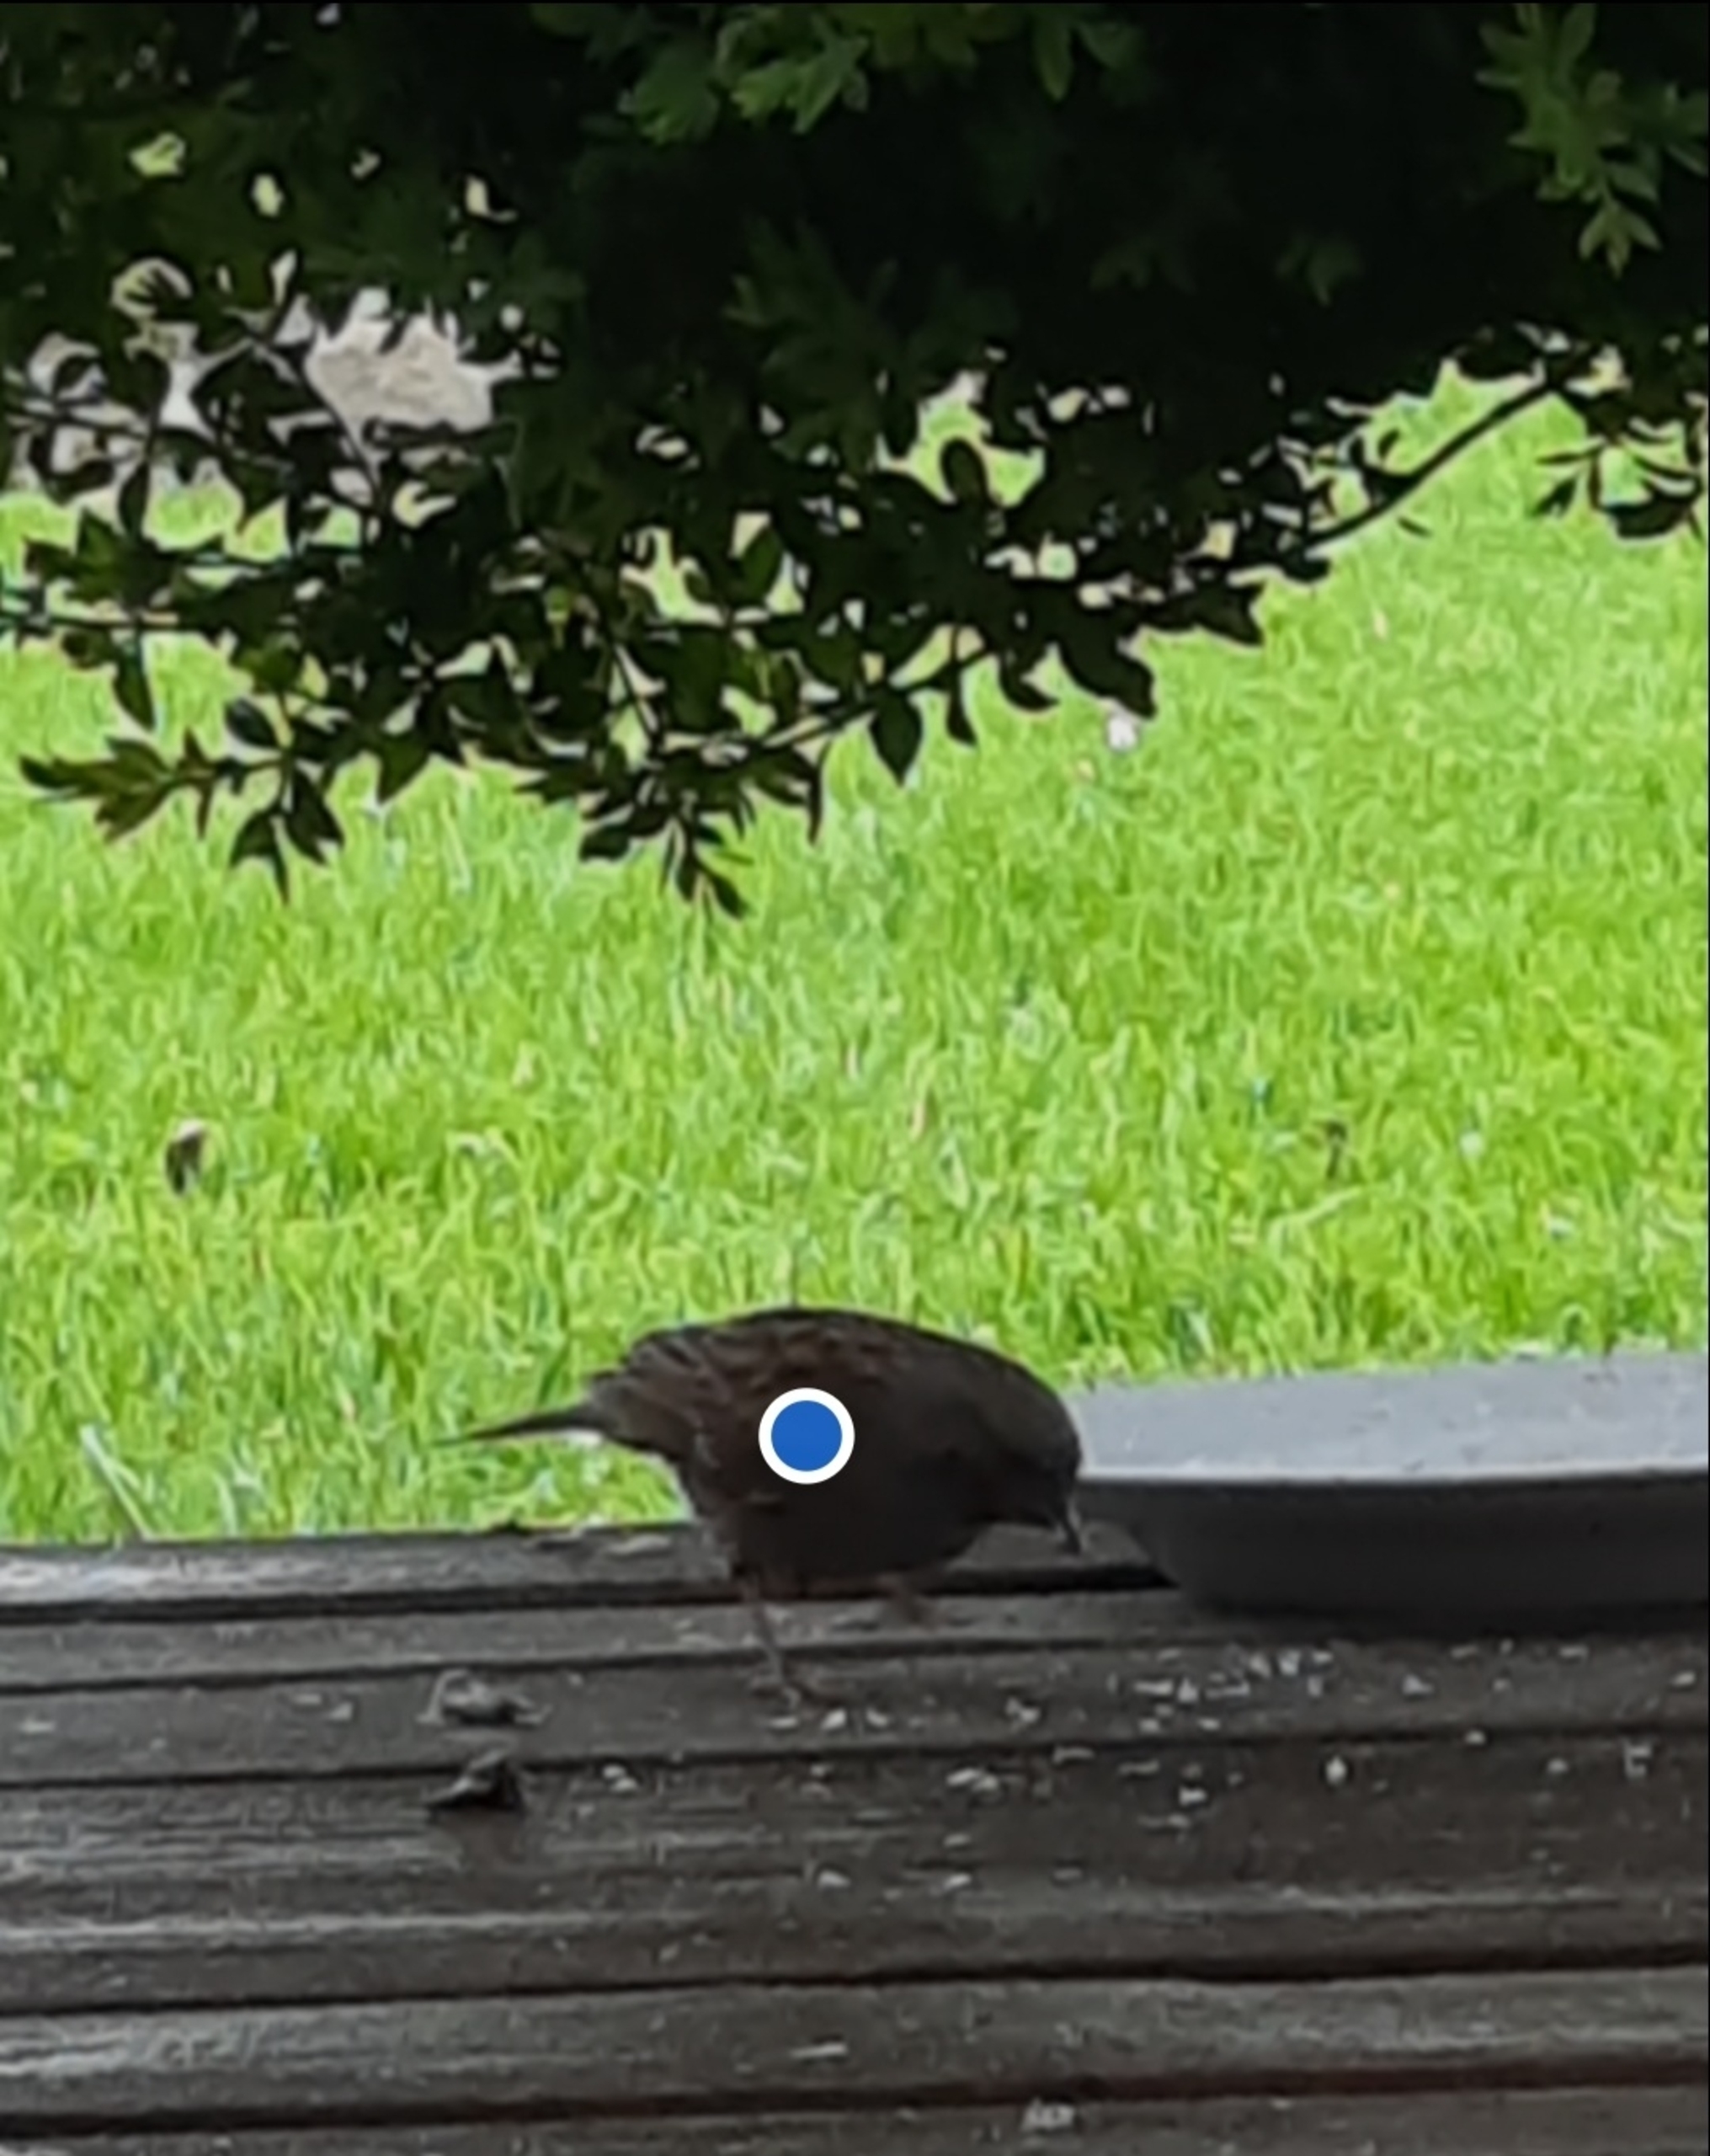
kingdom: Animalia
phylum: Chordata
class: Aves
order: Passeriformes
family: Prunellidae
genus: Prunella
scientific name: Prunella modularis
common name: Jernspurv
